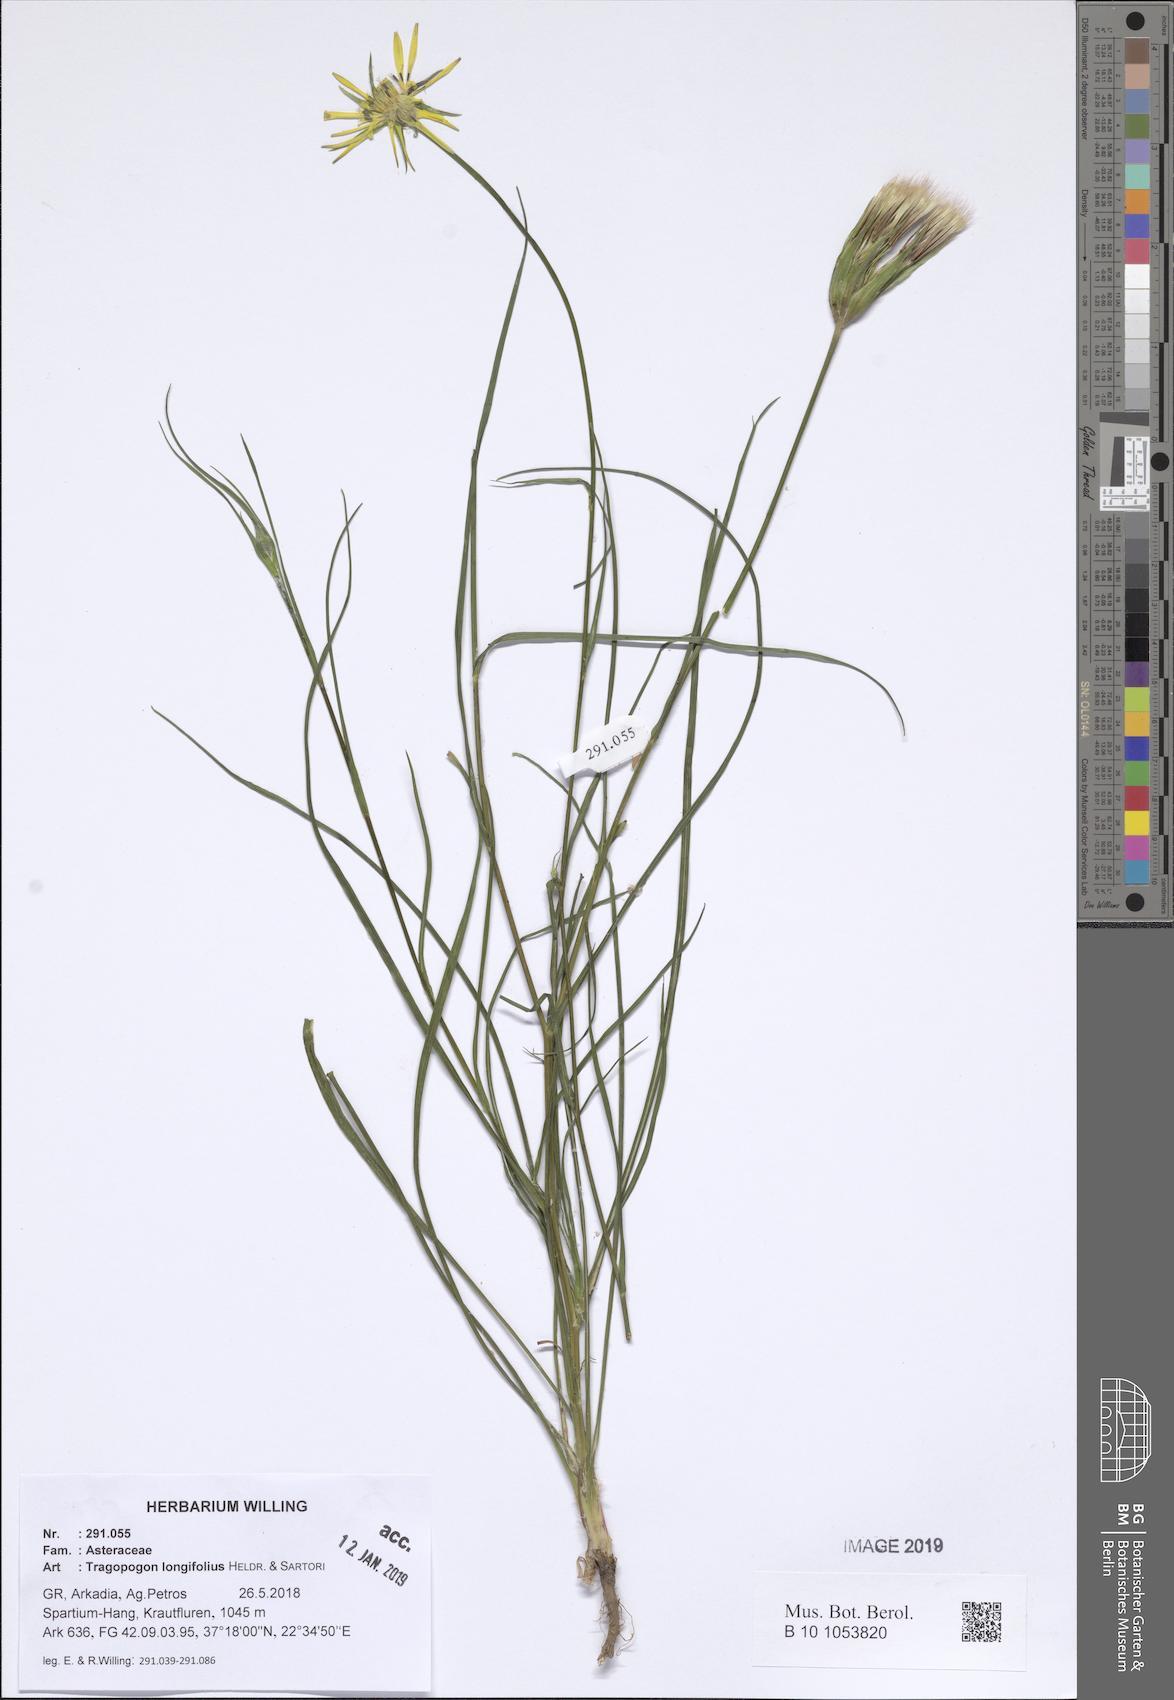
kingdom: Plantae
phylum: Tracheophyta
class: Magnoliopsida
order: Asterales
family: Asteraceae
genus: Tragopogon
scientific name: Tragopogon longifolius
